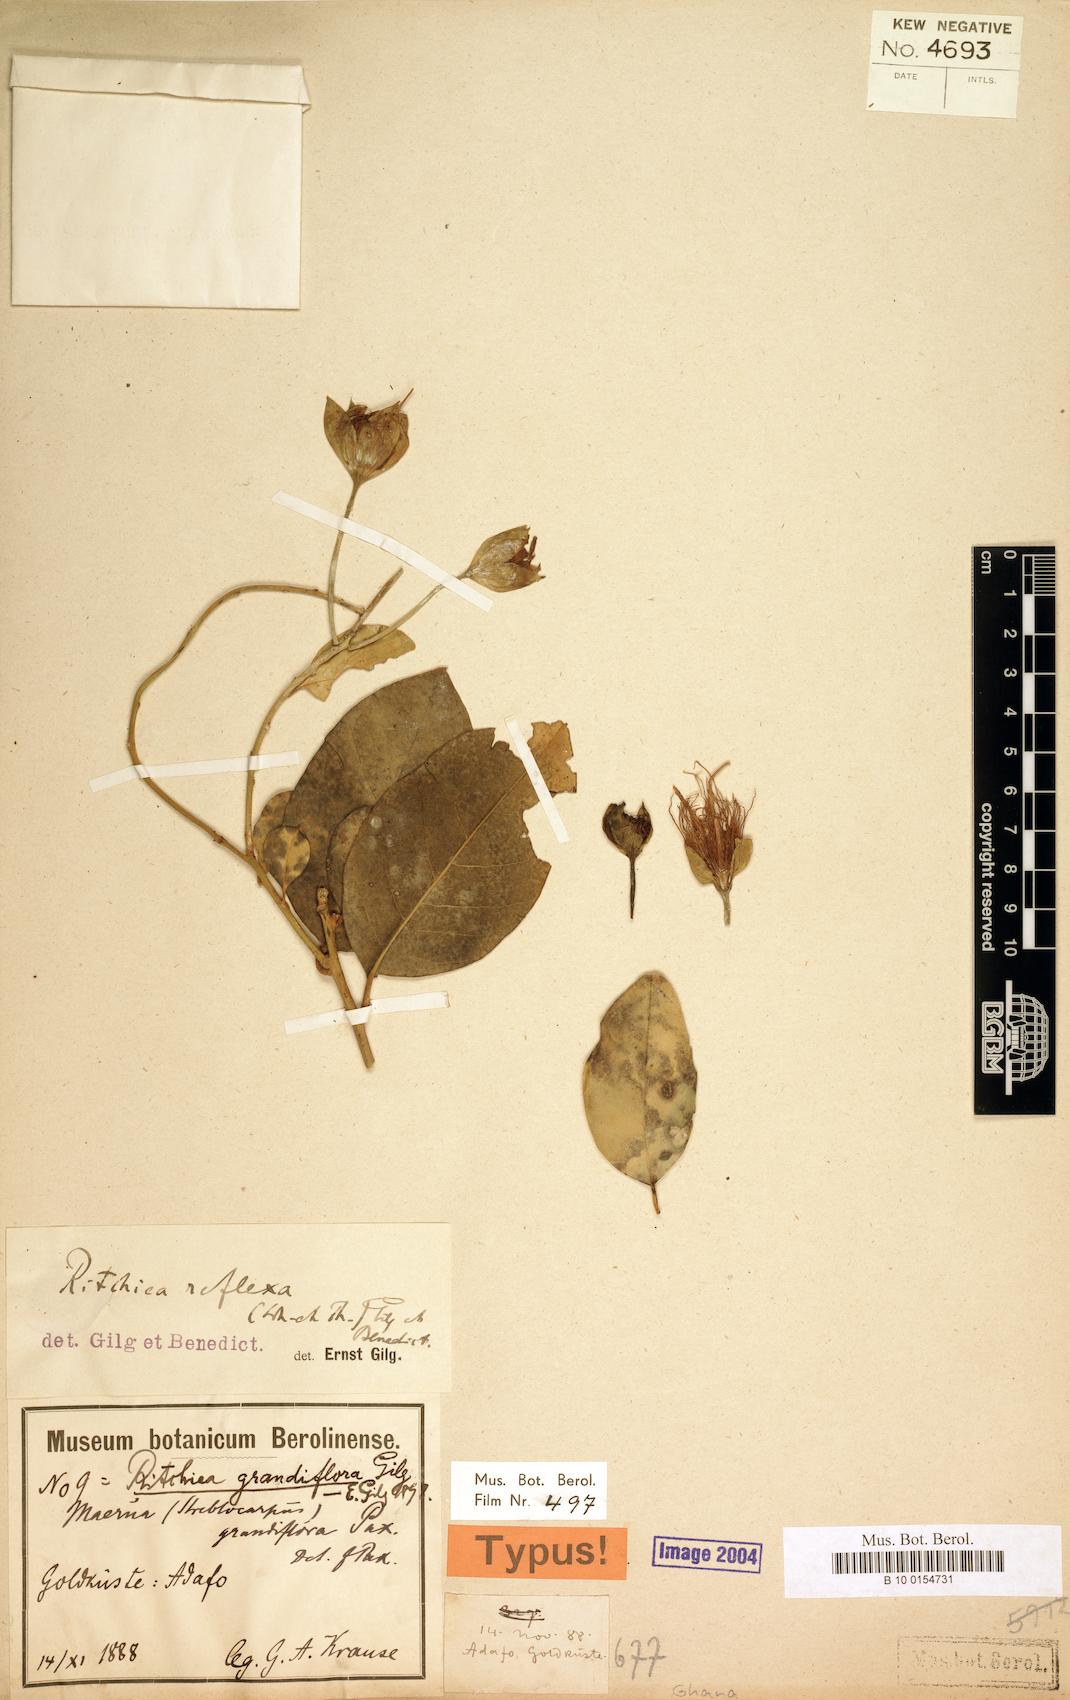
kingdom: Plantae
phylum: Tracheophyta
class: Magnoliopsida
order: Brassicales
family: Capparaceae
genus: Ritchiea
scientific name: Ritchiea reflexa
